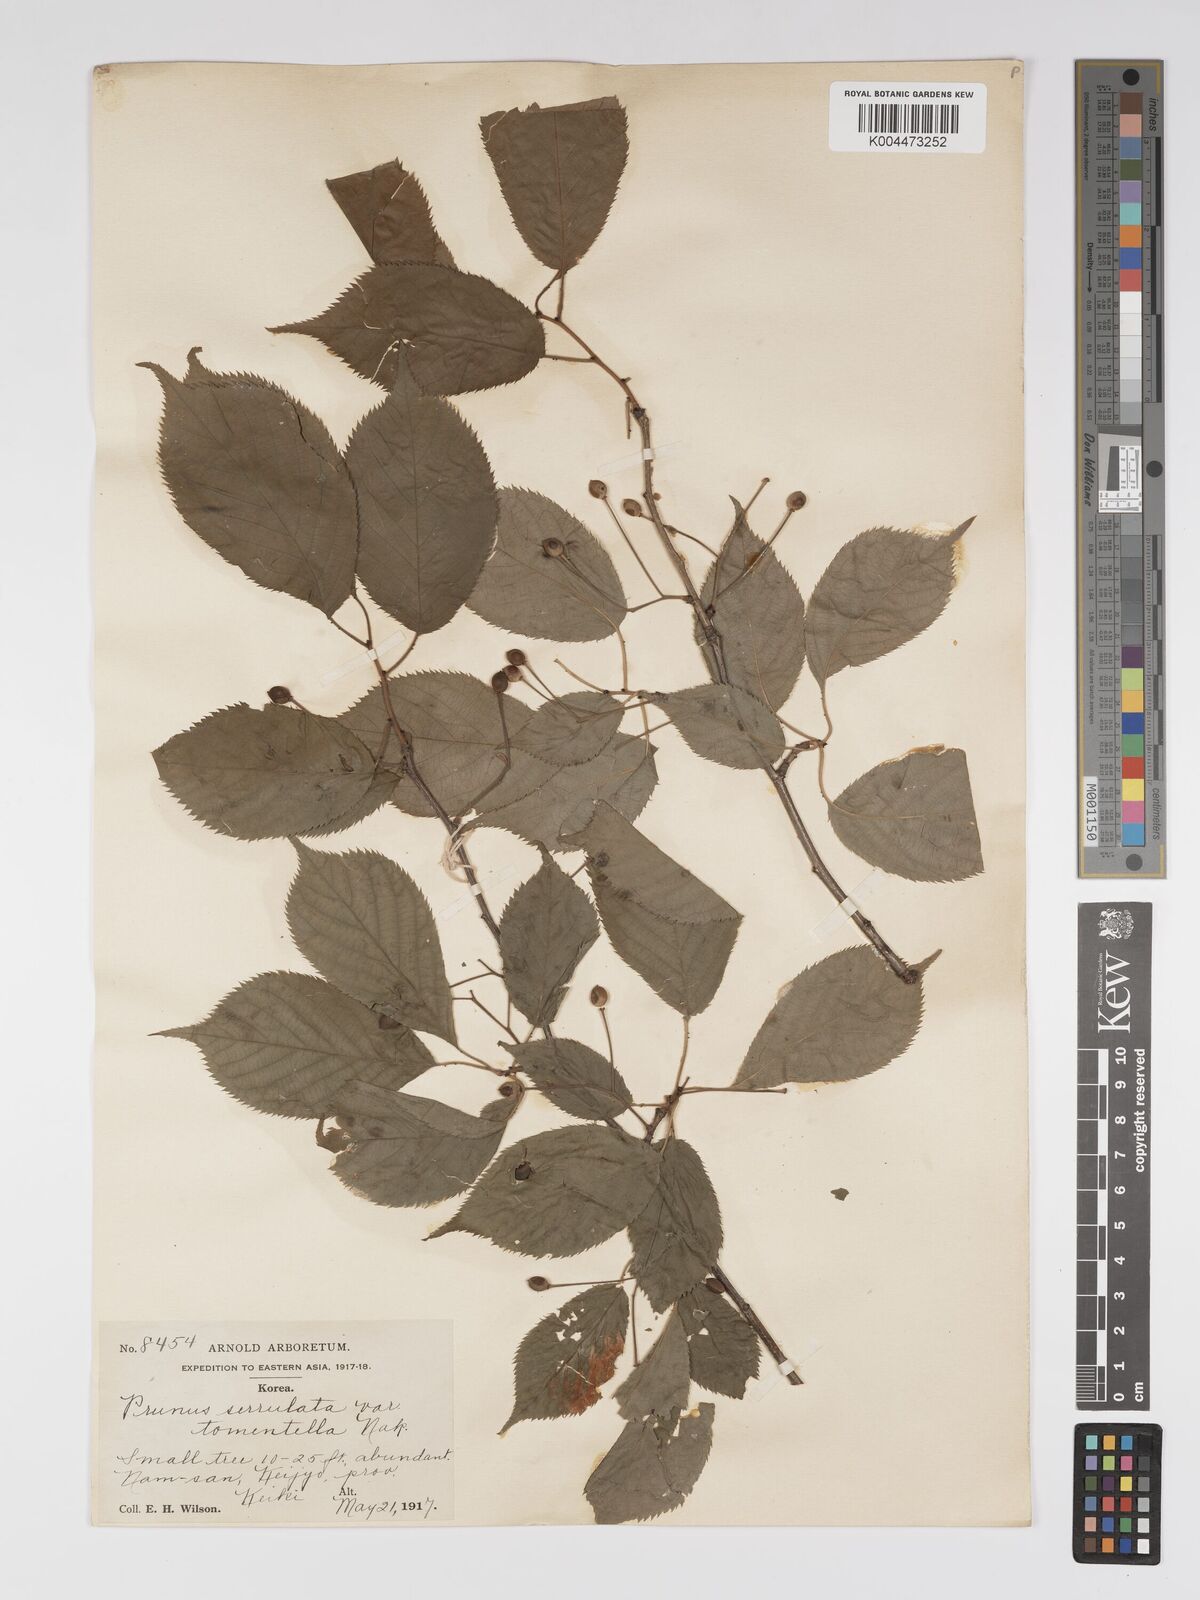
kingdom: Plantae
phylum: Tracheophyta
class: Magnoliopsida
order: Rosales
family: Rosaceae
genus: Prunus
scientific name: Prunus serrulata
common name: Japanese cherry
